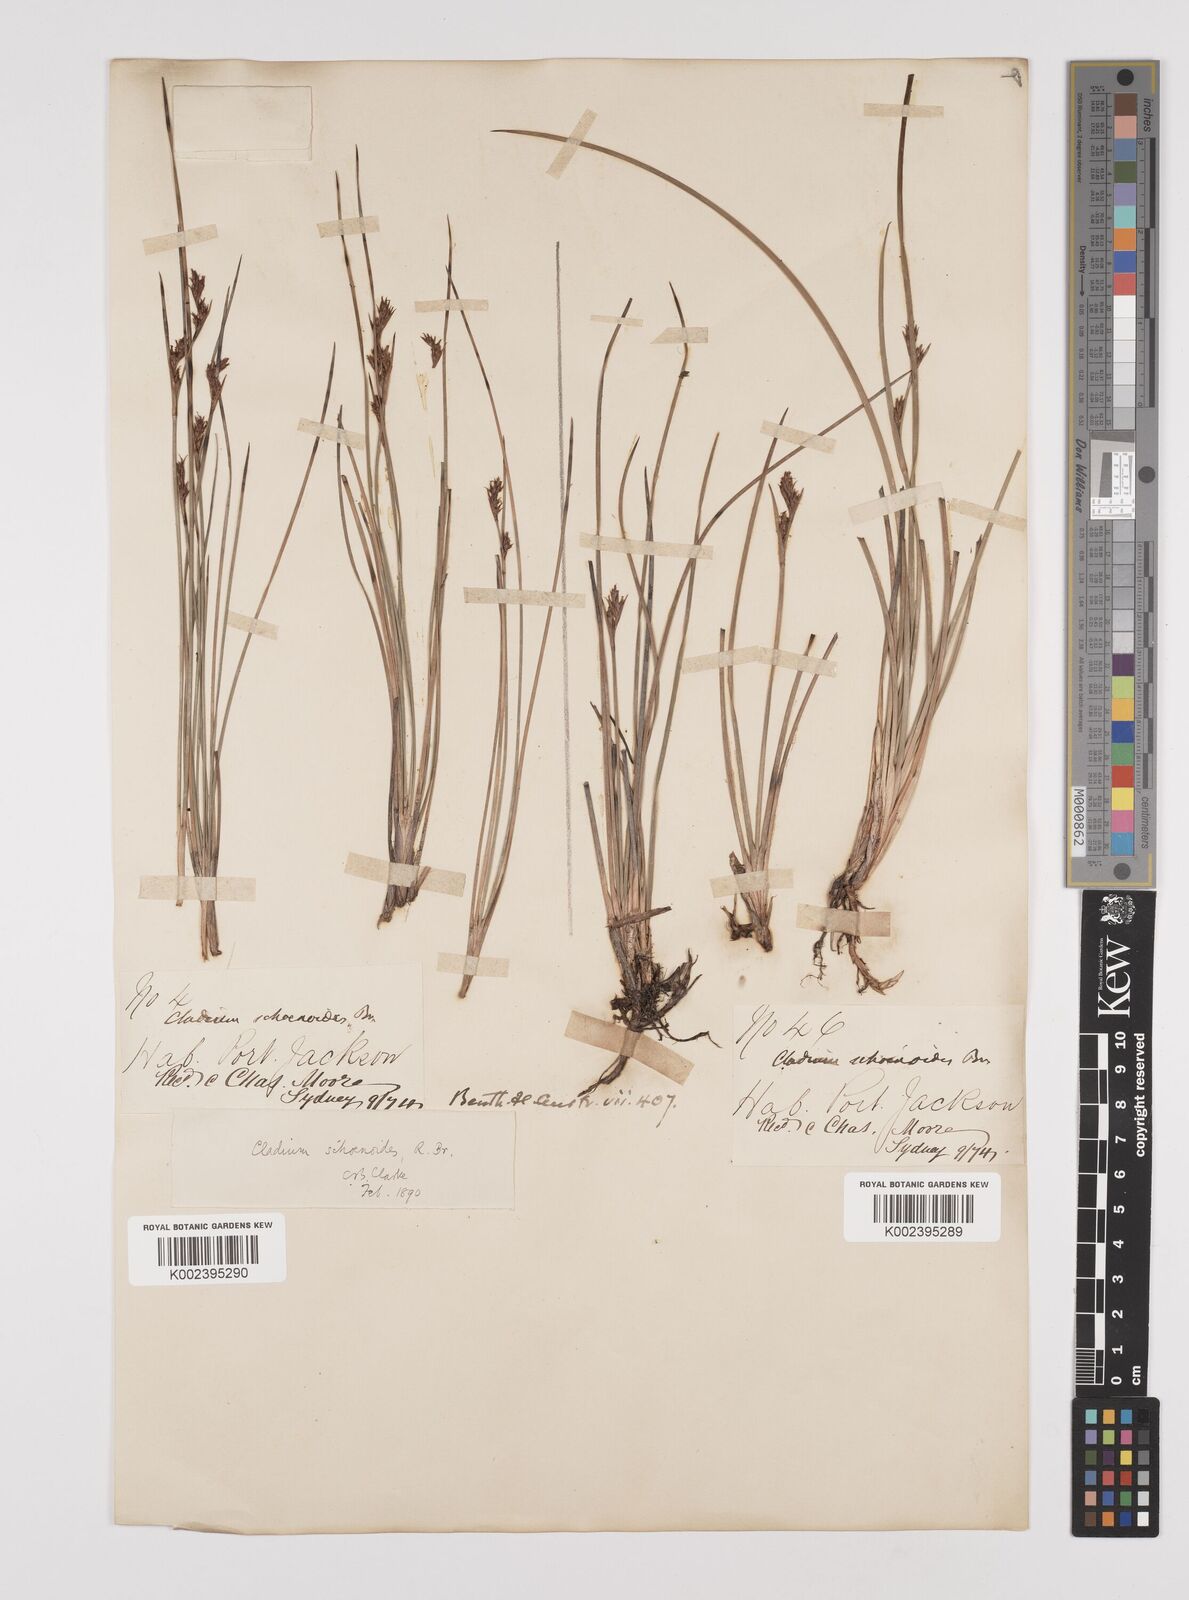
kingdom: Plantae
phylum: Tracheophyta
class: Liliopsida
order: Poales
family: Cyperaceae
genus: Machaerina
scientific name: Machaerina acuta
